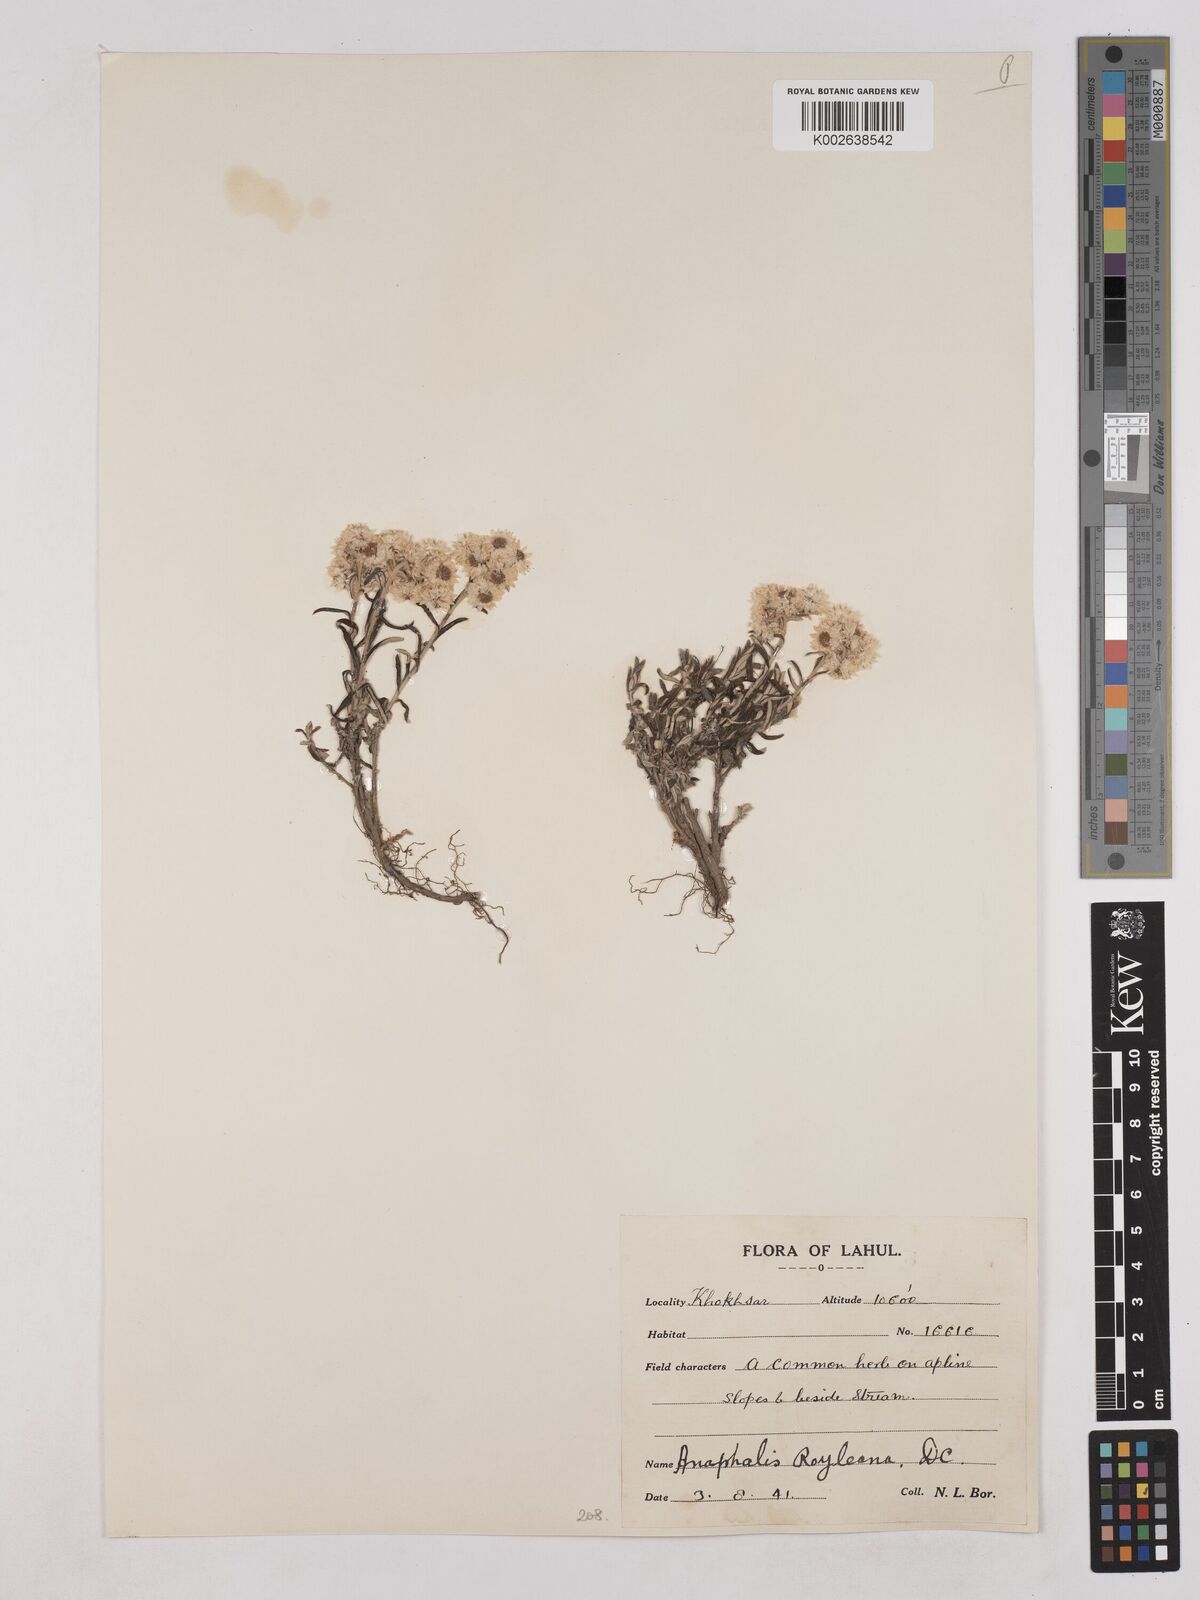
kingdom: Plantae
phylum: Tracheophyta
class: Magnoliopsida
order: Asterales
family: Asteraceae
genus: Anaphalis
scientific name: Anaphalis royleana
